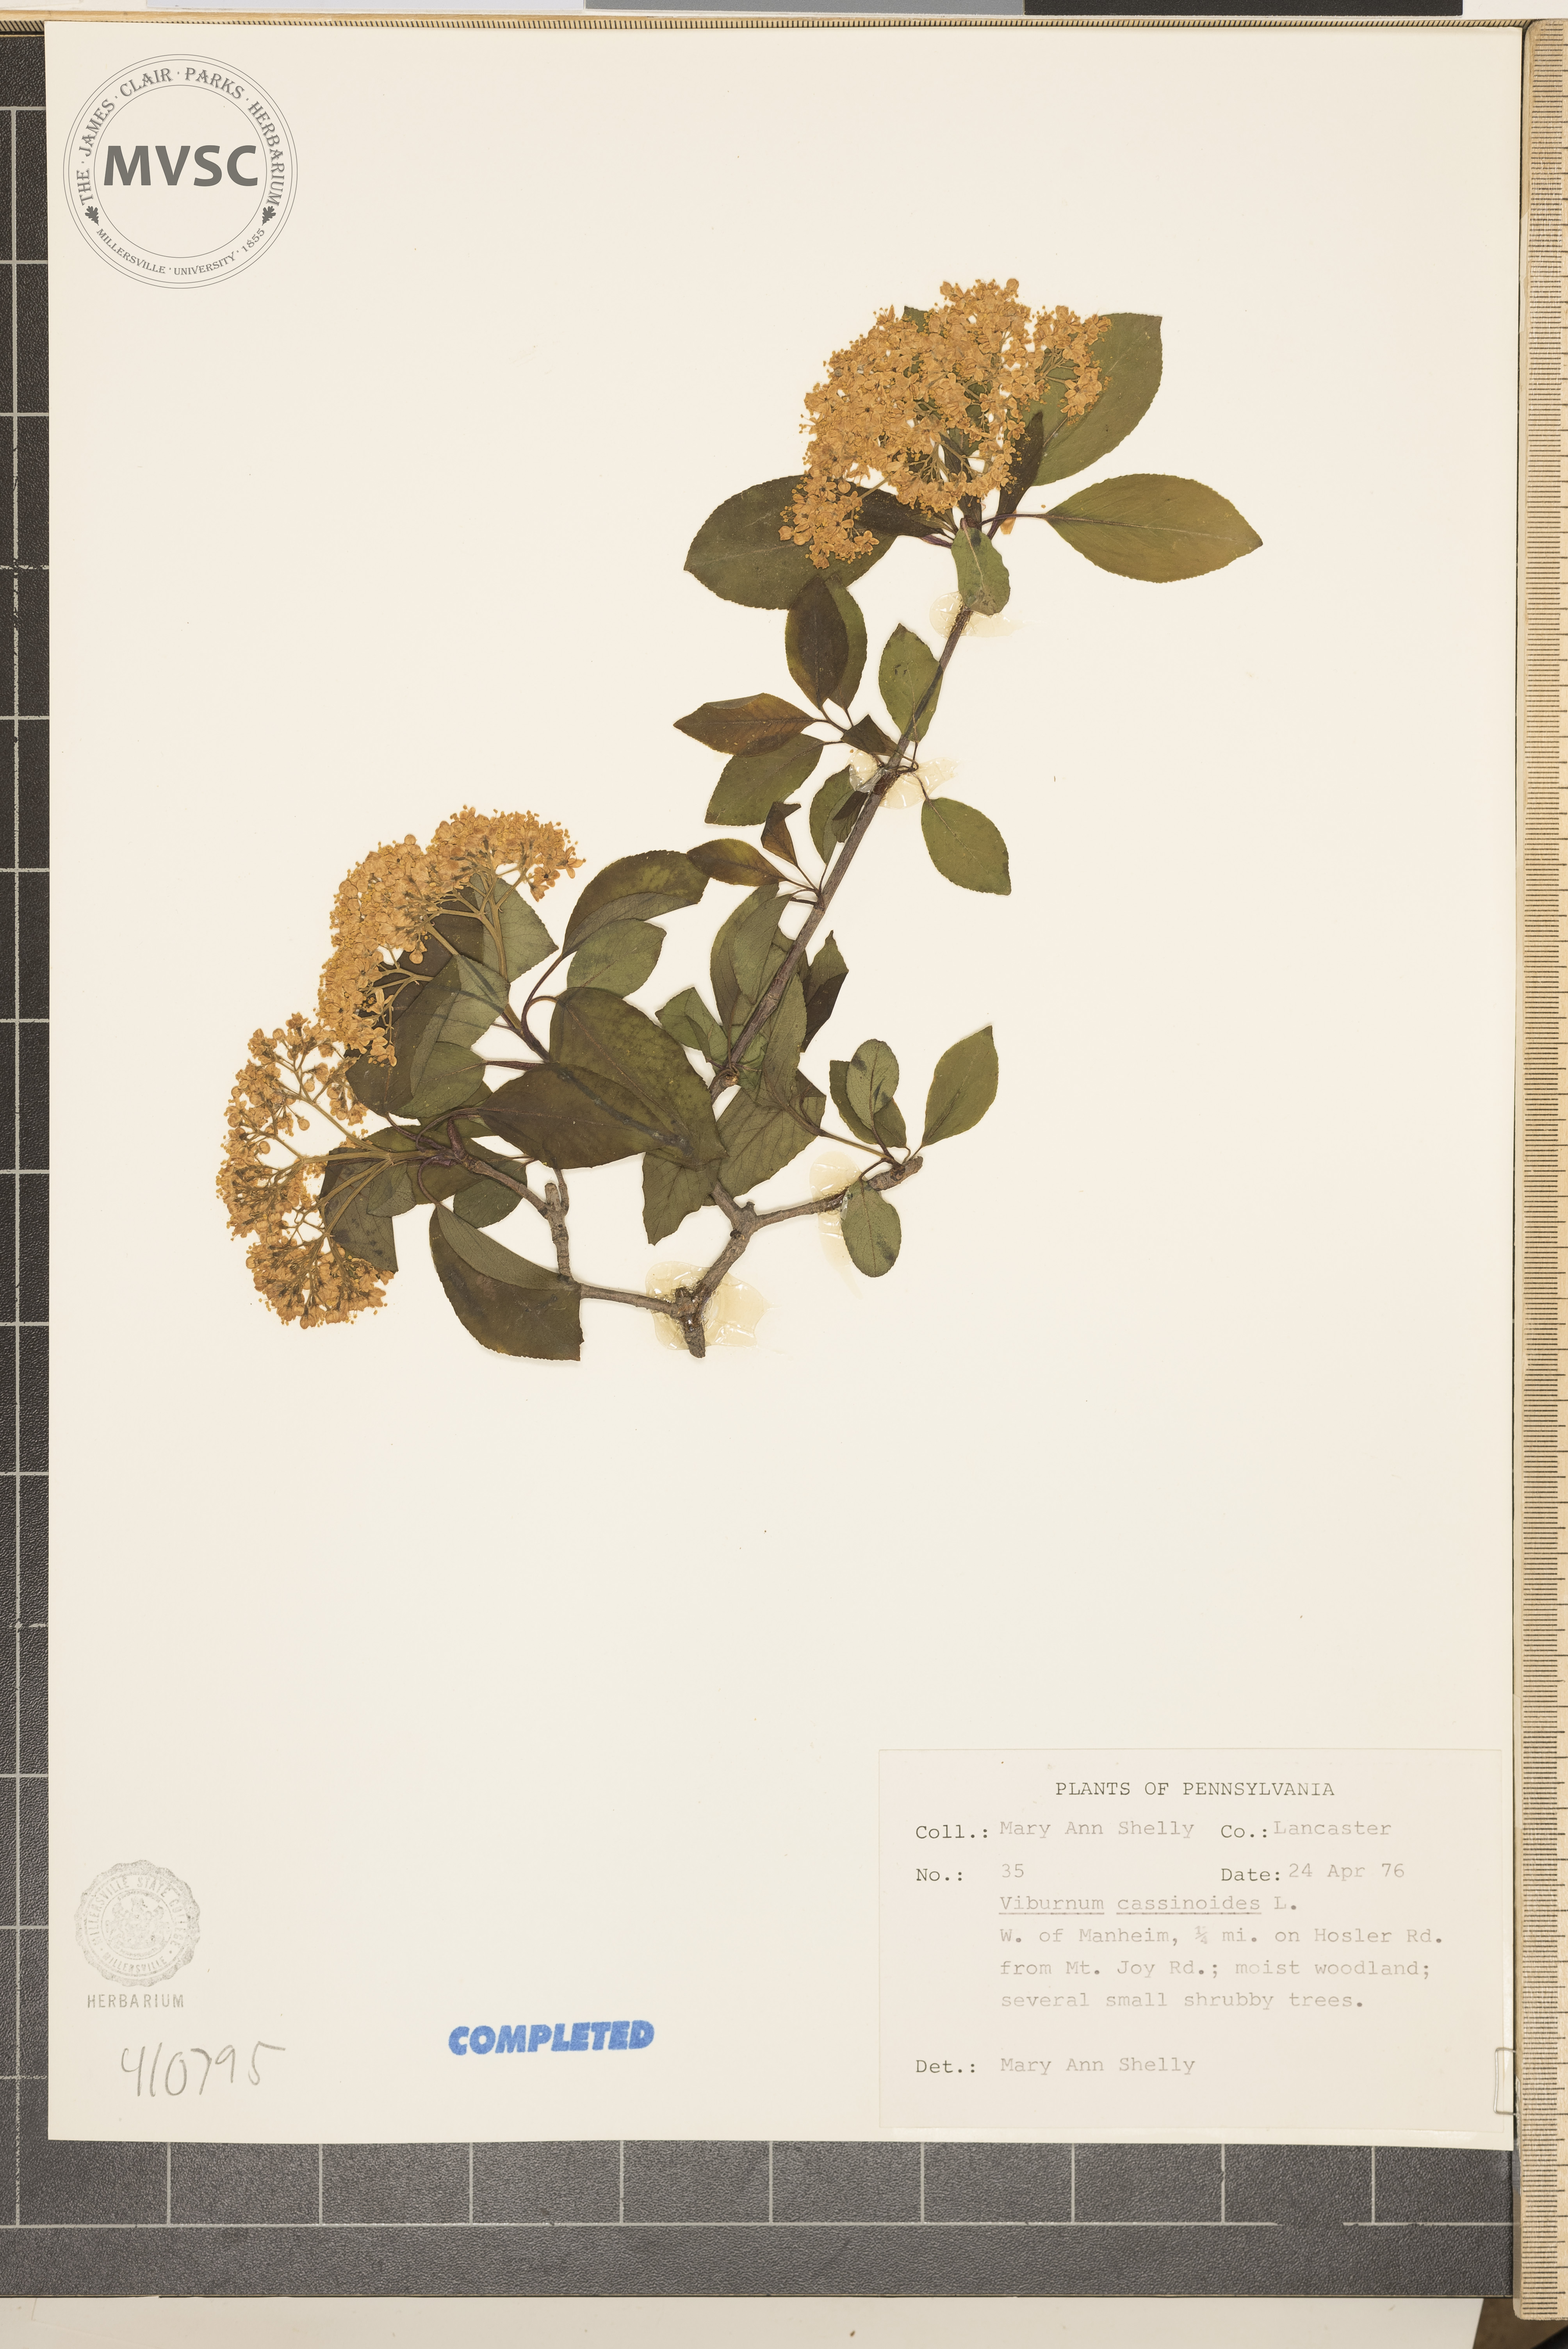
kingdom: Plantae
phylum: Tracheophyta
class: Magnoliopsida
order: Dipsacales
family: Viburnaceae
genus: Viburnum
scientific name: Viburnum cassinoides
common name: Swamp haw
